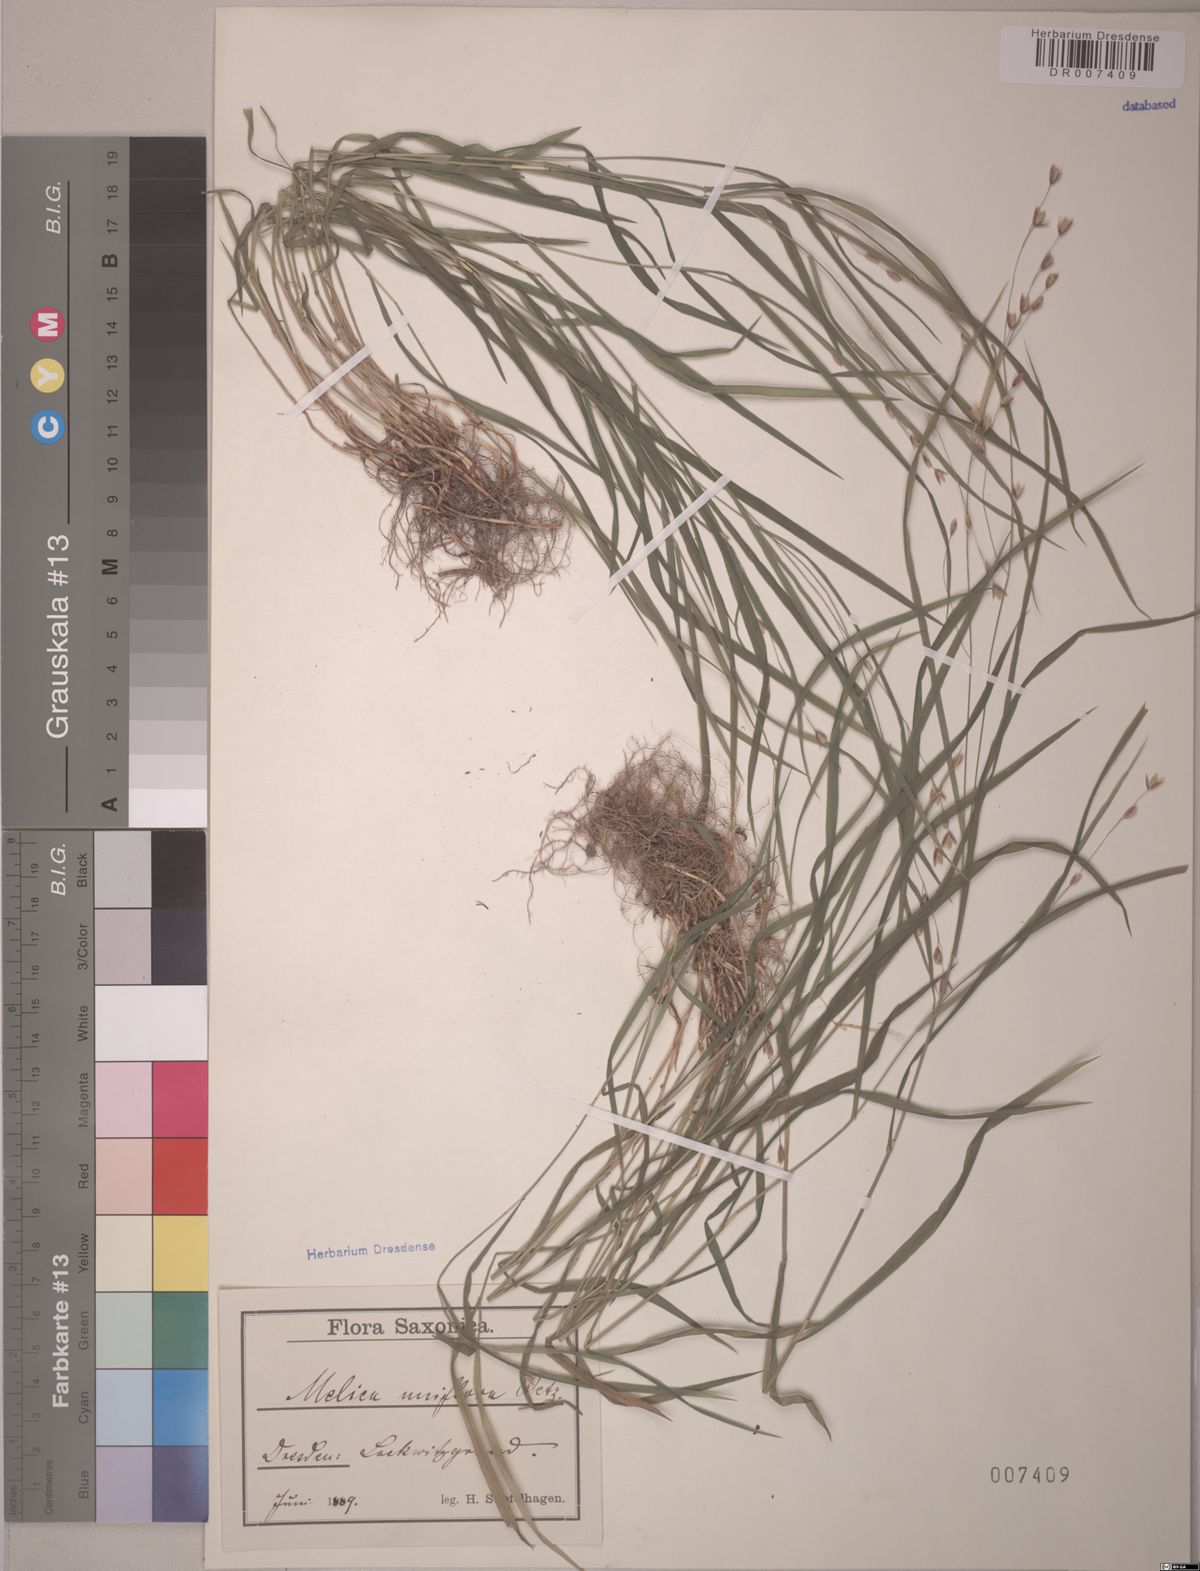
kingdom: Plantae
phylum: Tracheophyta
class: Liliopsida
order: Poales
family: Poaceae
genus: Melica
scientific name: Melica uniflora
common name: Wood melick
